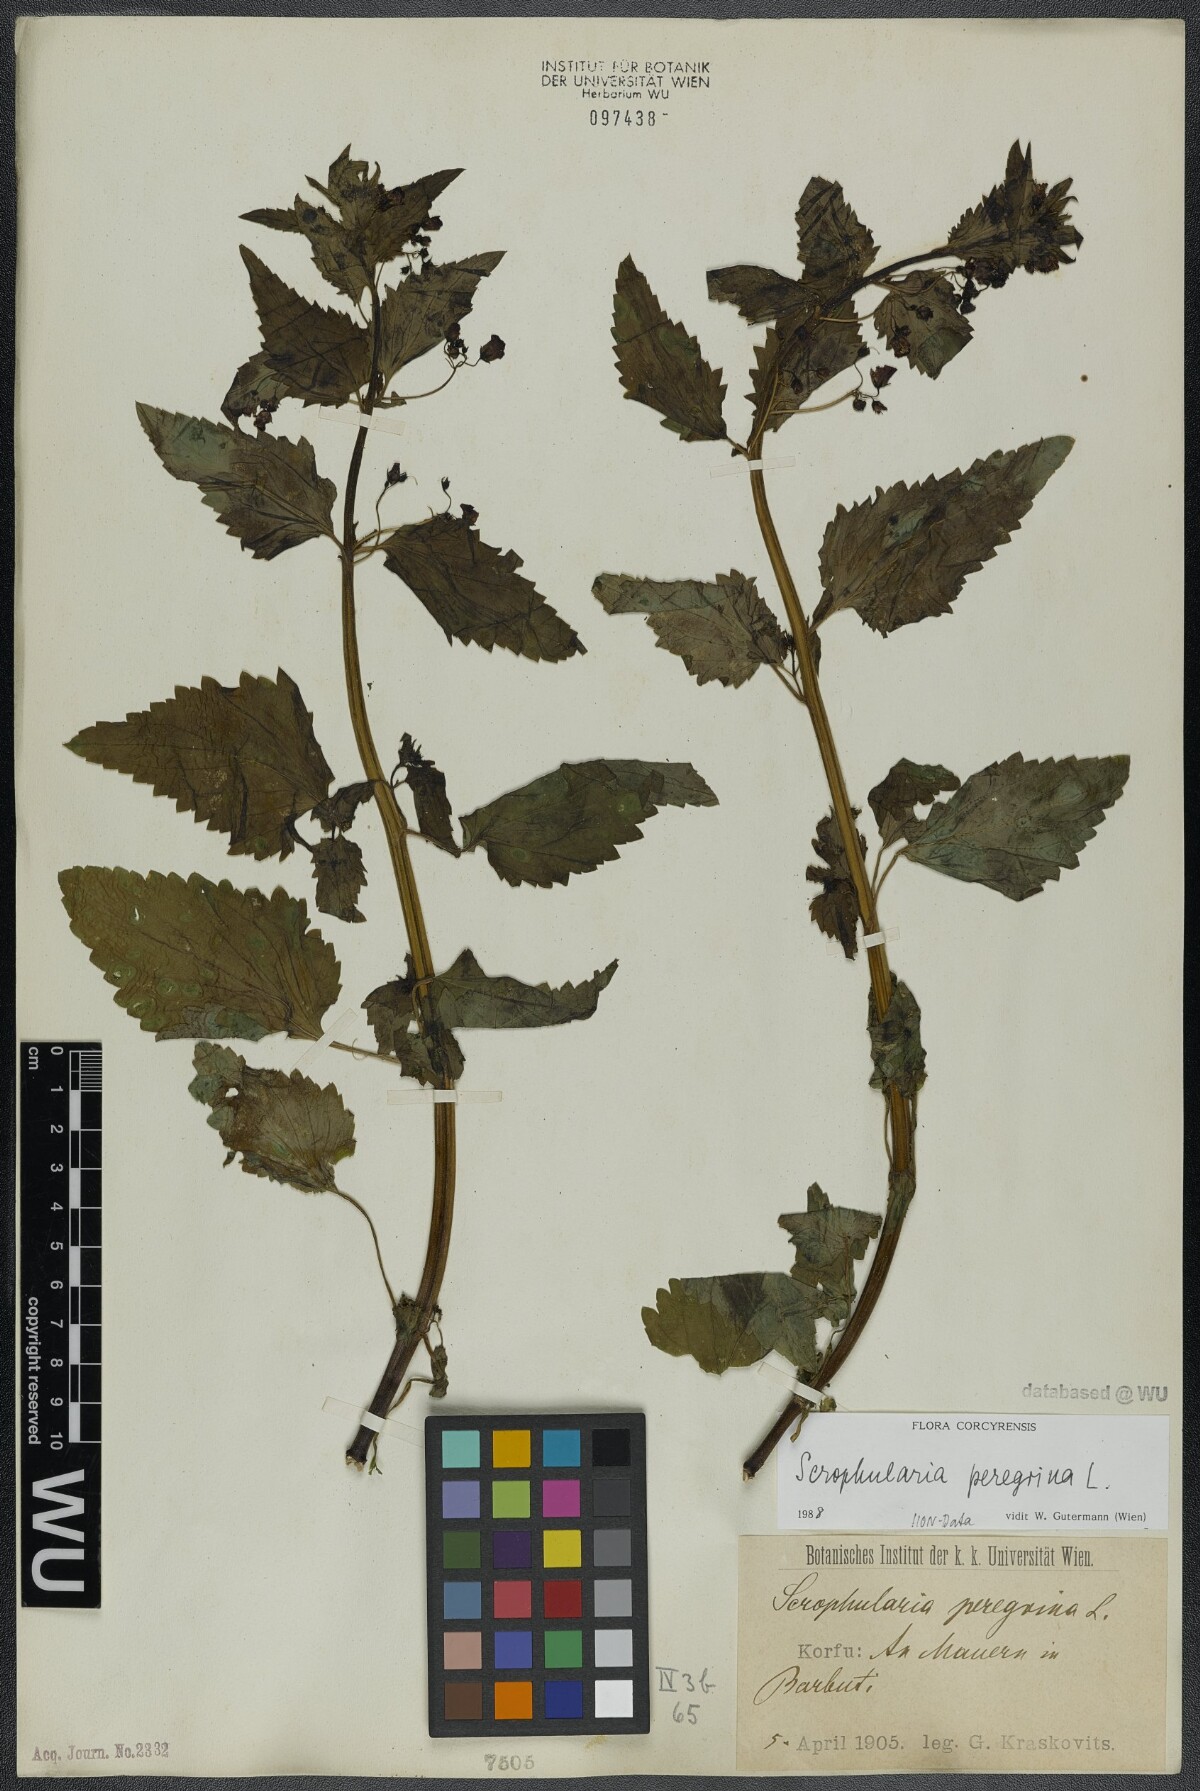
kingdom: Plantae
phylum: Tracheophyta
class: Magnoliopsida
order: Lamiales
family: Scrophulariaceae
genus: Scrophularia
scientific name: Scrophularia peregrina
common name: Mediterranean figwort
